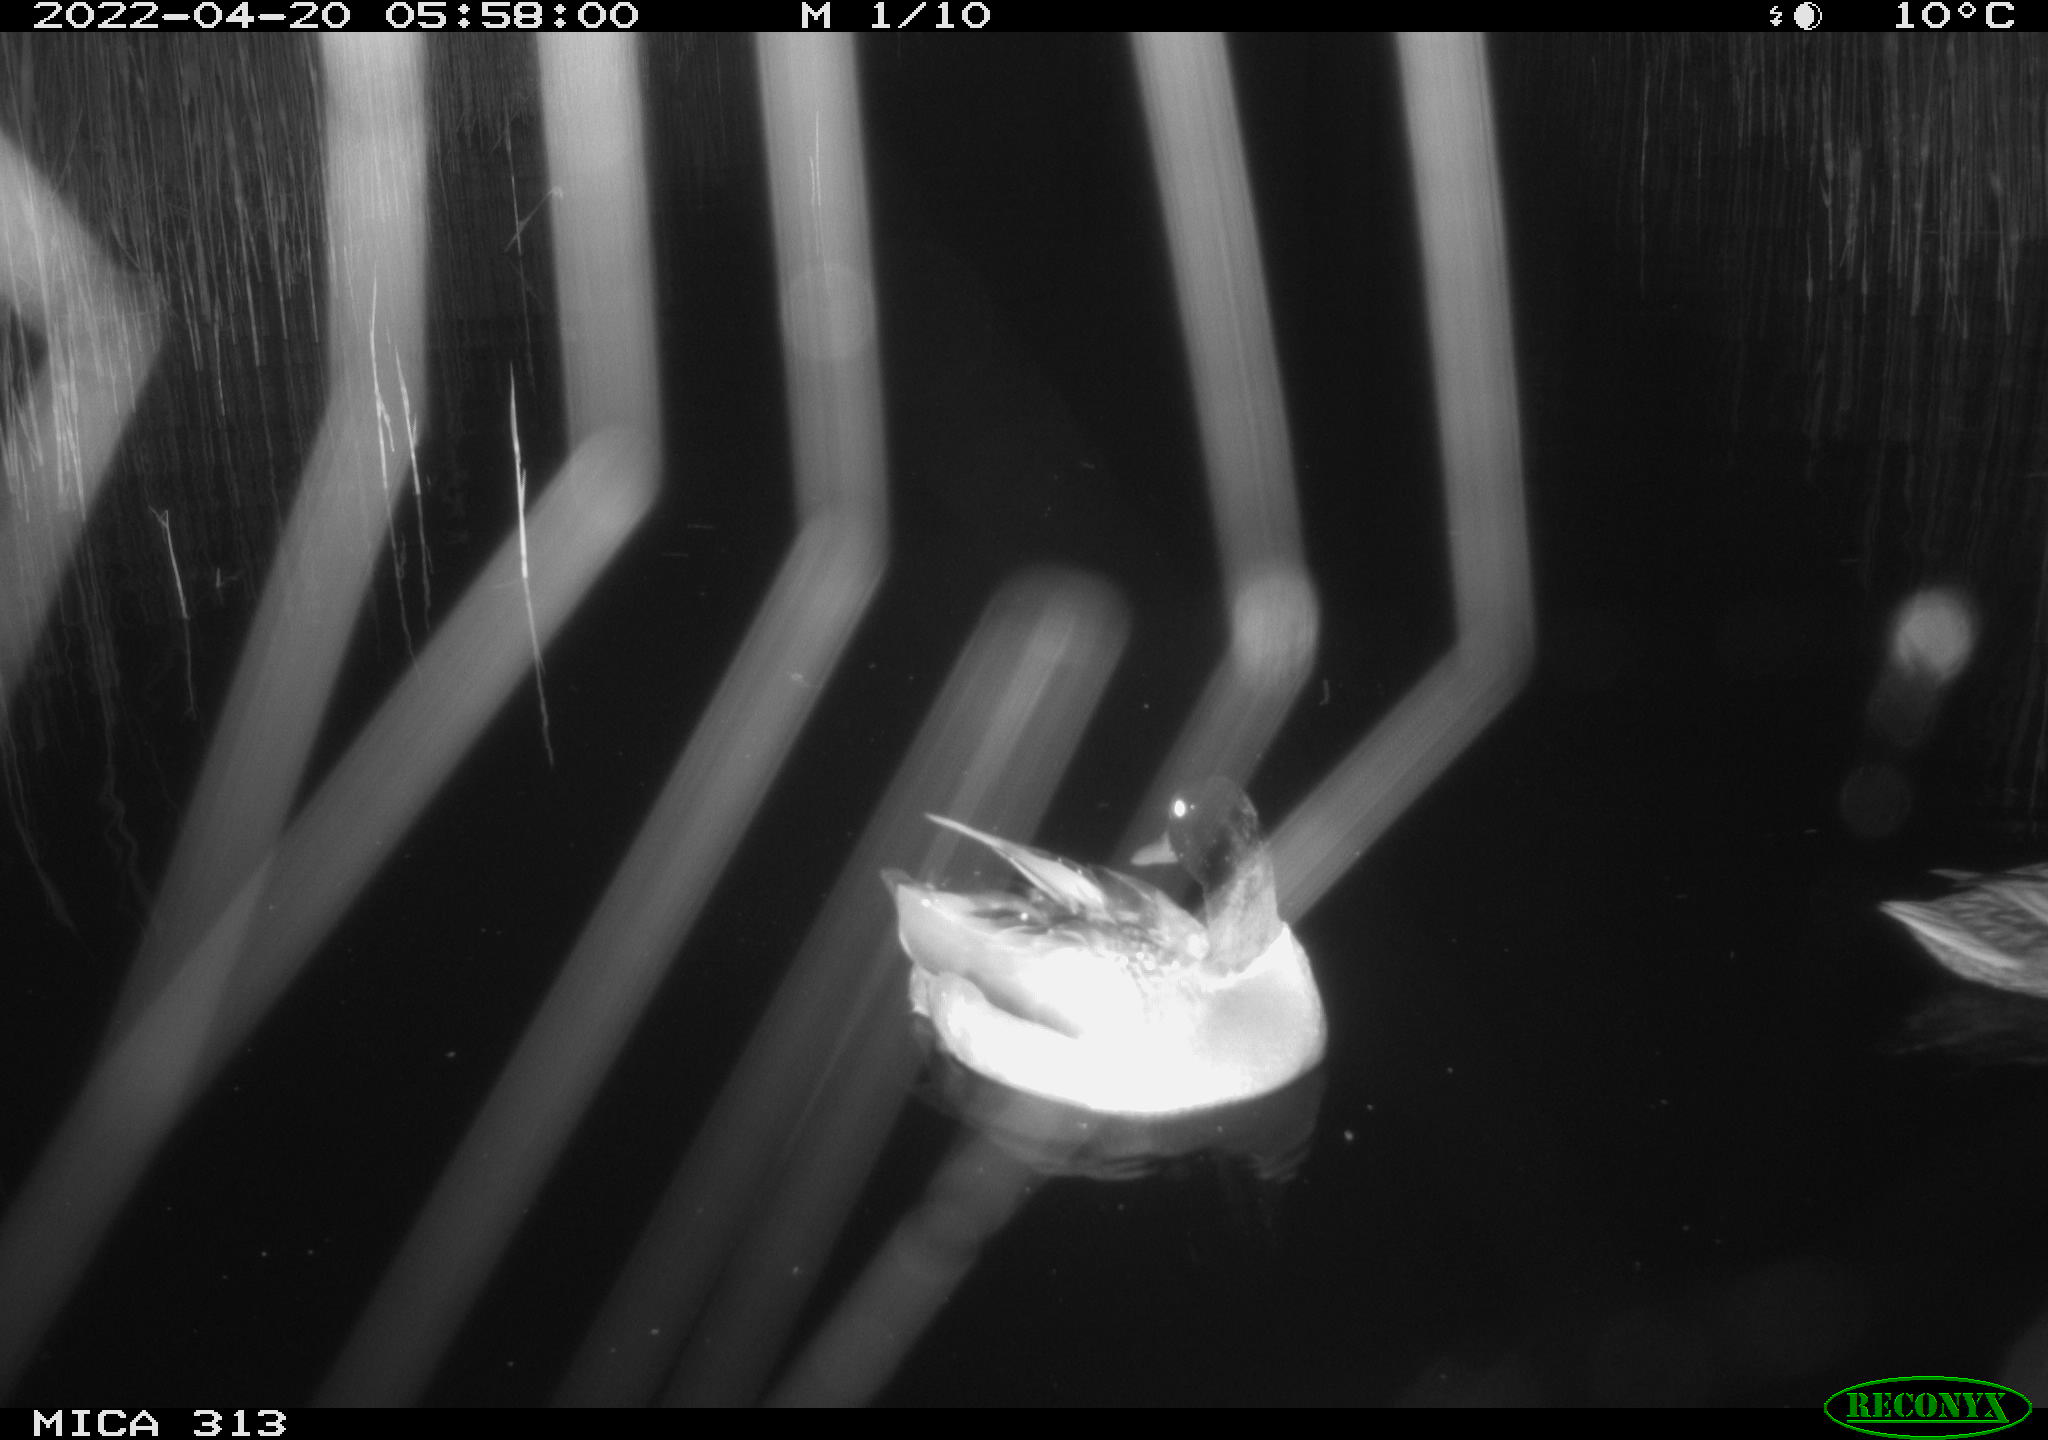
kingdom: Animalia
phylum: Chordata
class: Aves
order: Anseriformes
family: Anatidae
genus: Anas
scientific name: Anas platyrhynchos
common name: Mallard
